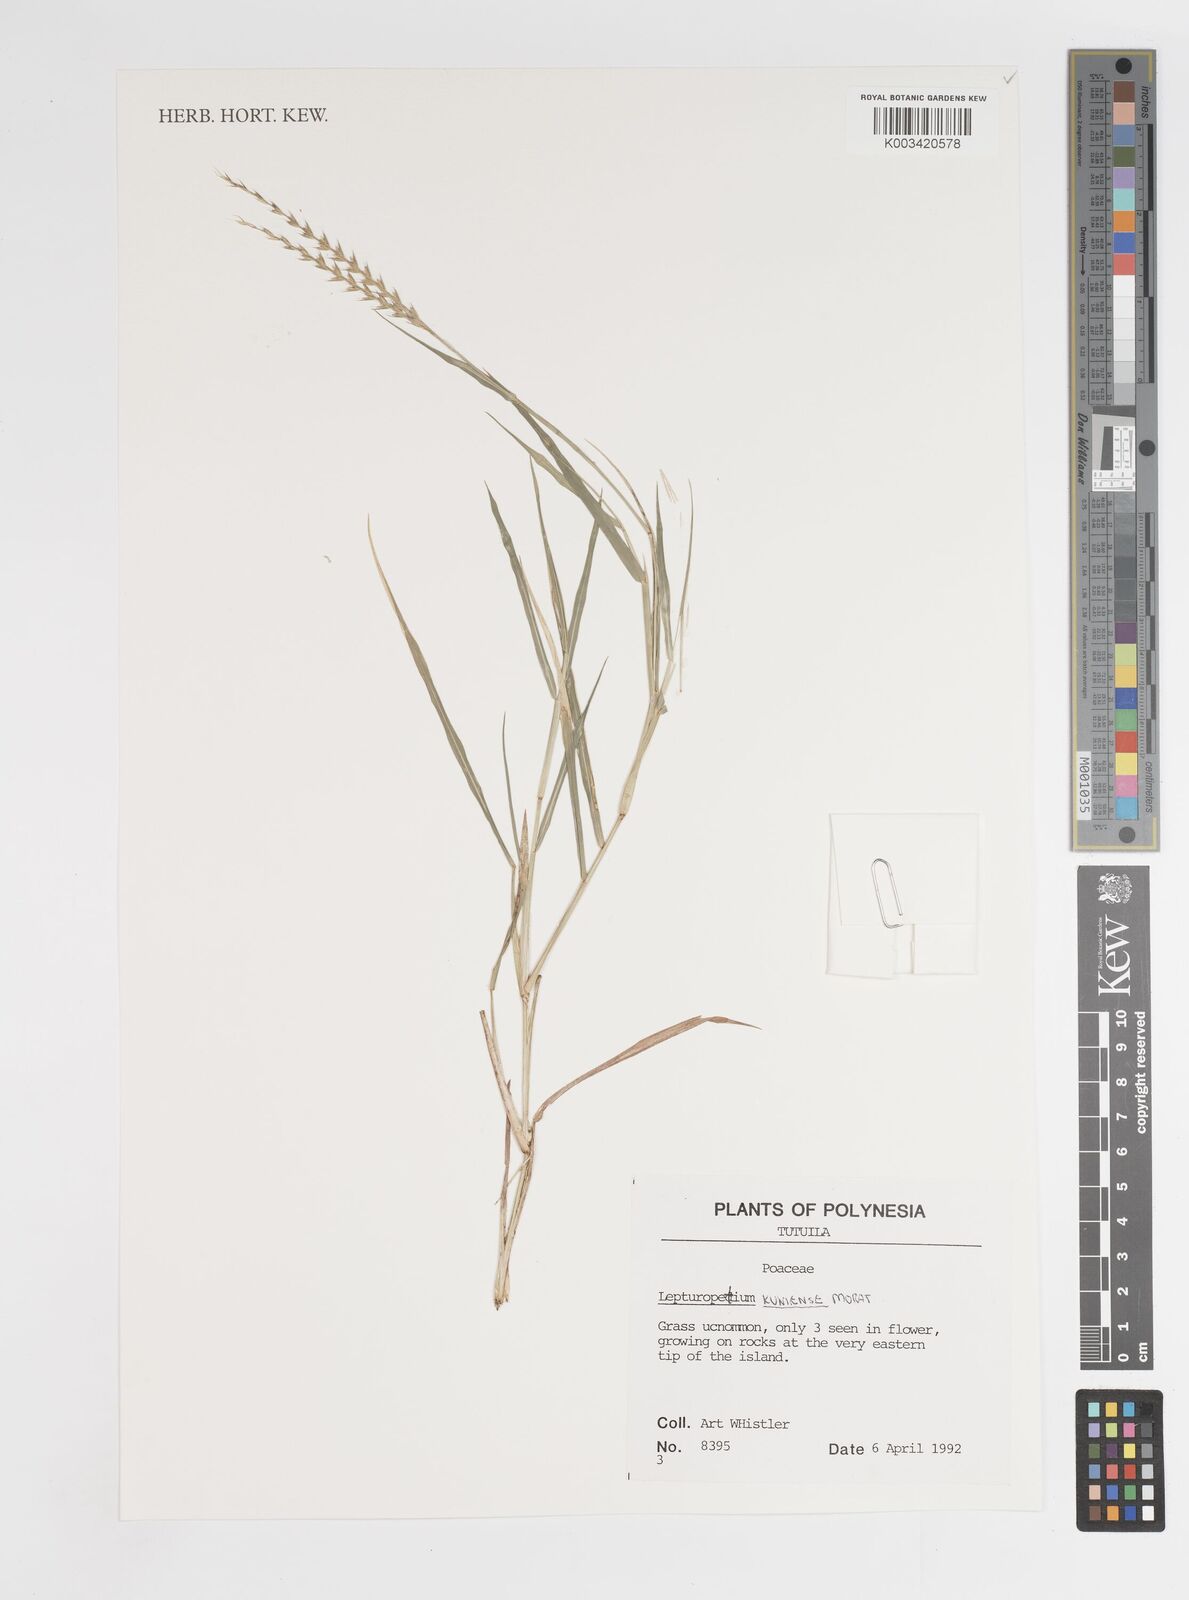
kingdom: Plantae
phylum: Tracheophyta
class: Liliopsida
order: Poales
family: Poaceae
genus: Lepturopetium
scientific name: Lepturopetium kuniense
